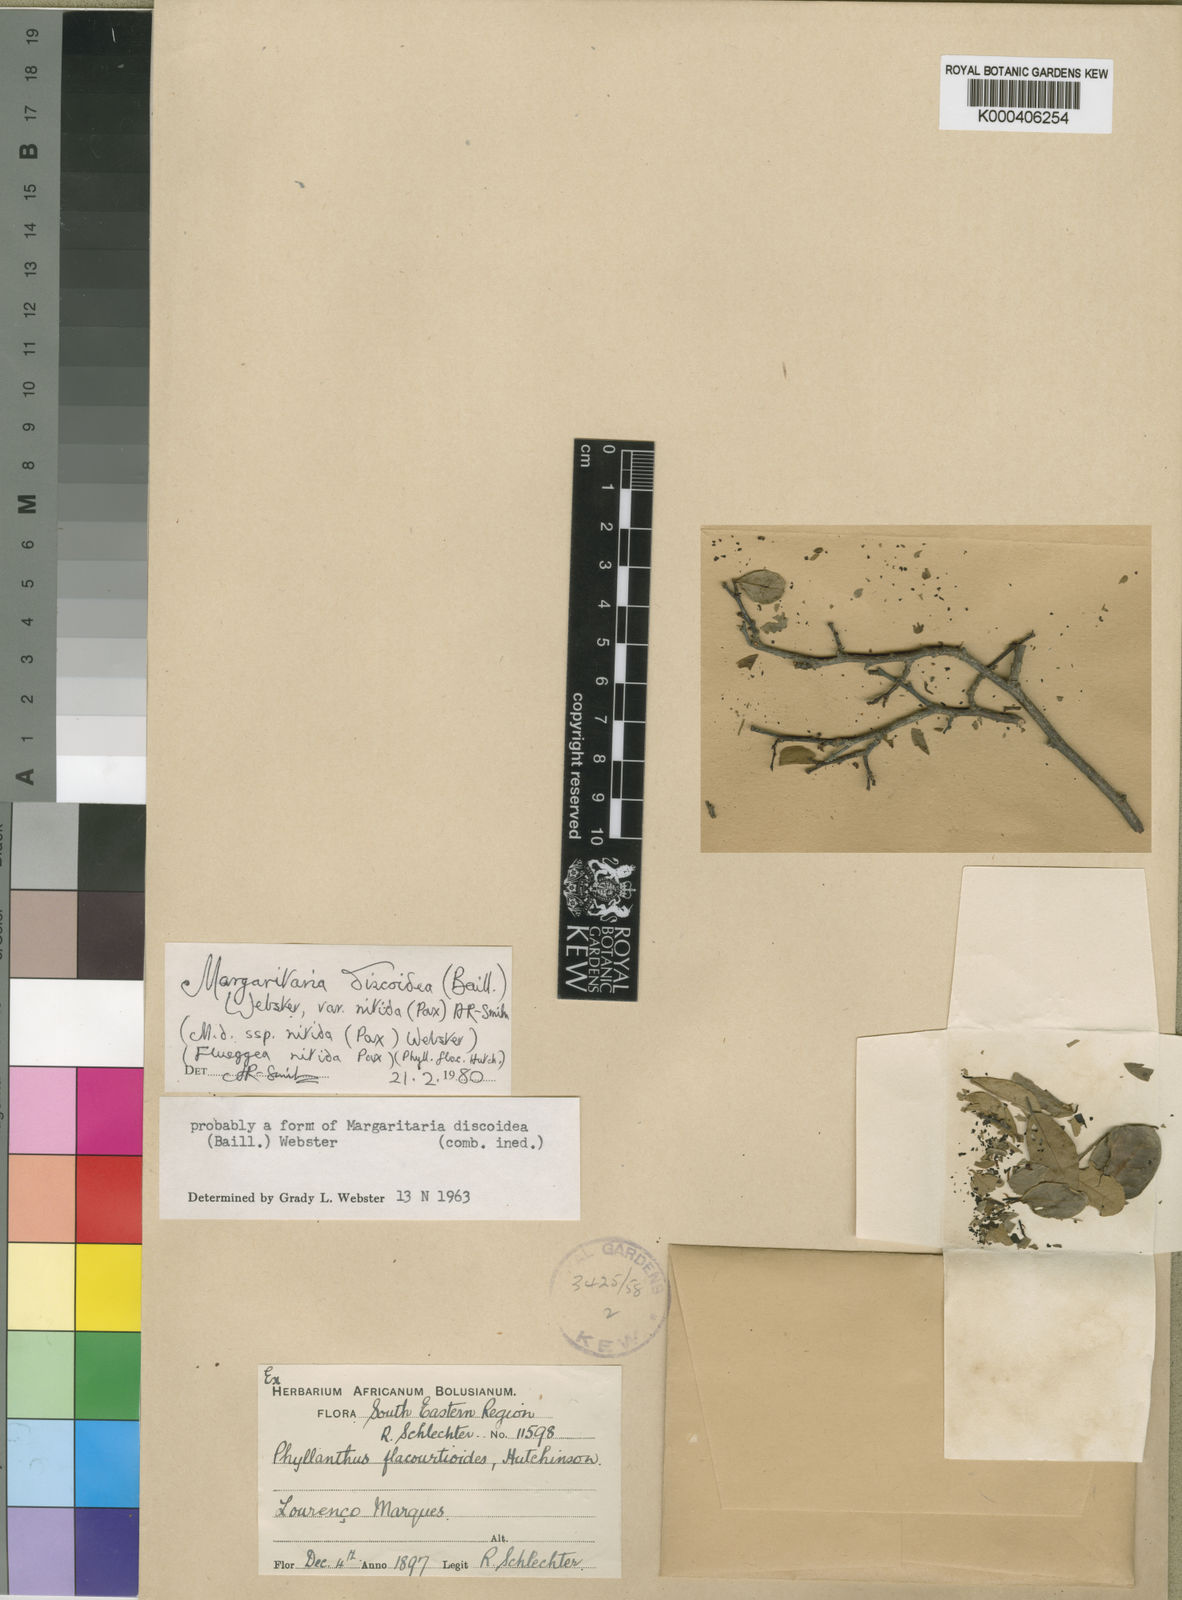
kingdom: Plantae
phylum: Tracheophyta
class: Magnoliopsida
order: Malpighiales
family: Phyllanthaceae
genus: Margaritaria
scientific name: Margaritaria discoidea
